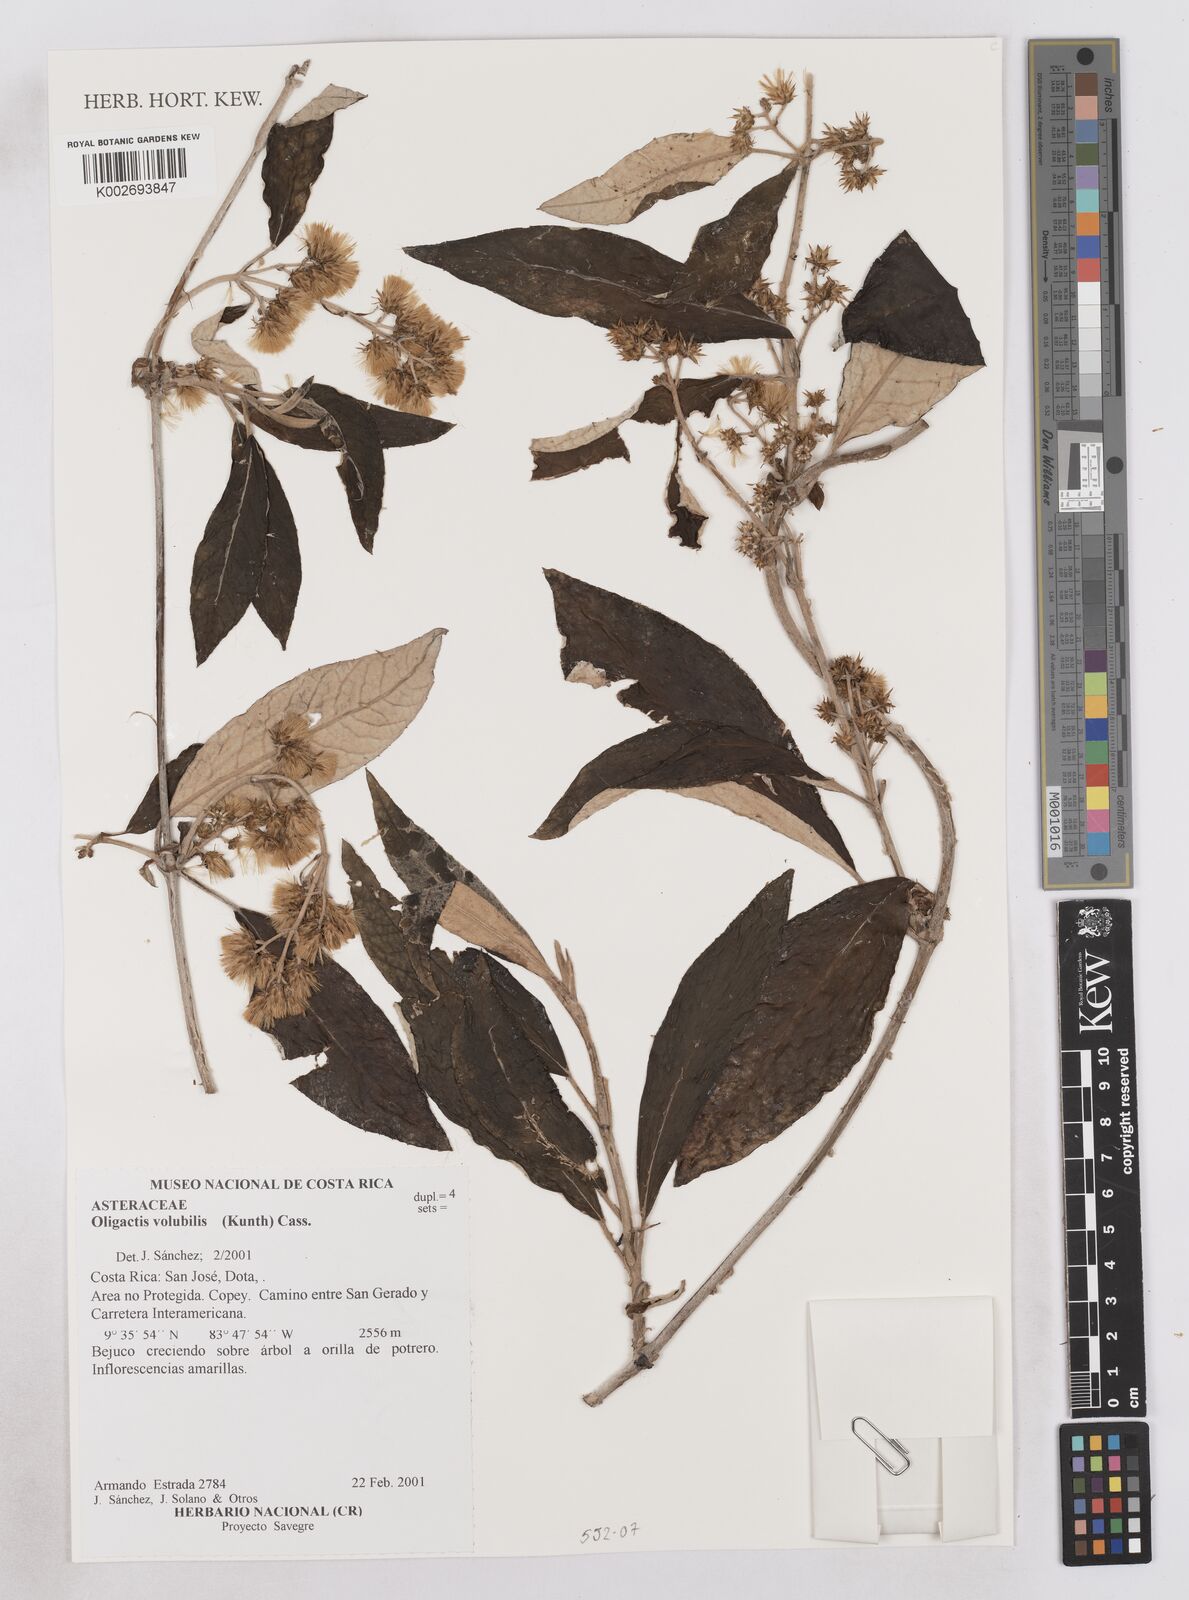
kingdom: Plantae
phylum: Tracheophyta
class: Magnoliopsida
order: Asterales
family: Asteraceae
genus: Oligactis
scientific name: Oligactis volubilis
